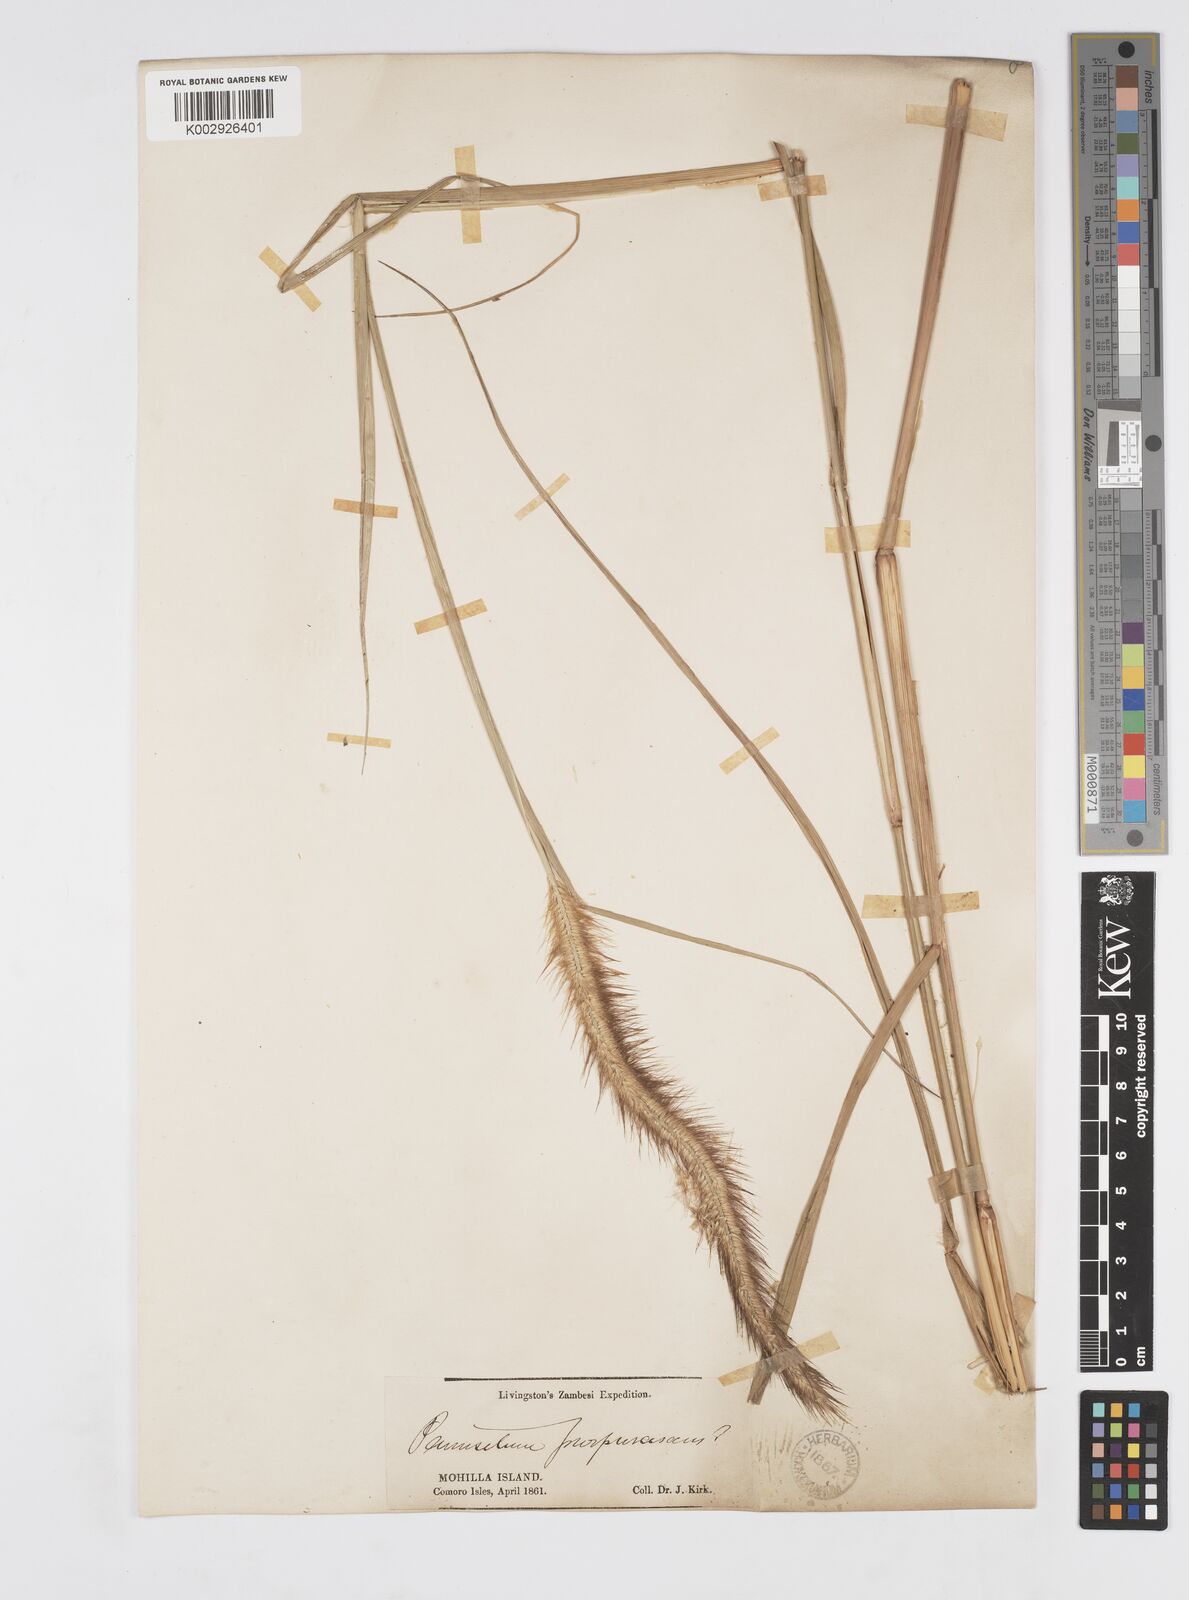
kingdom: Plantae
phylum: Tracheophyta
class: Liliopsida
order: Poales
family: Poaceae
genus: Setaria
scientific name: Setaria parviflora
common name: Knotroot bristle-grass
